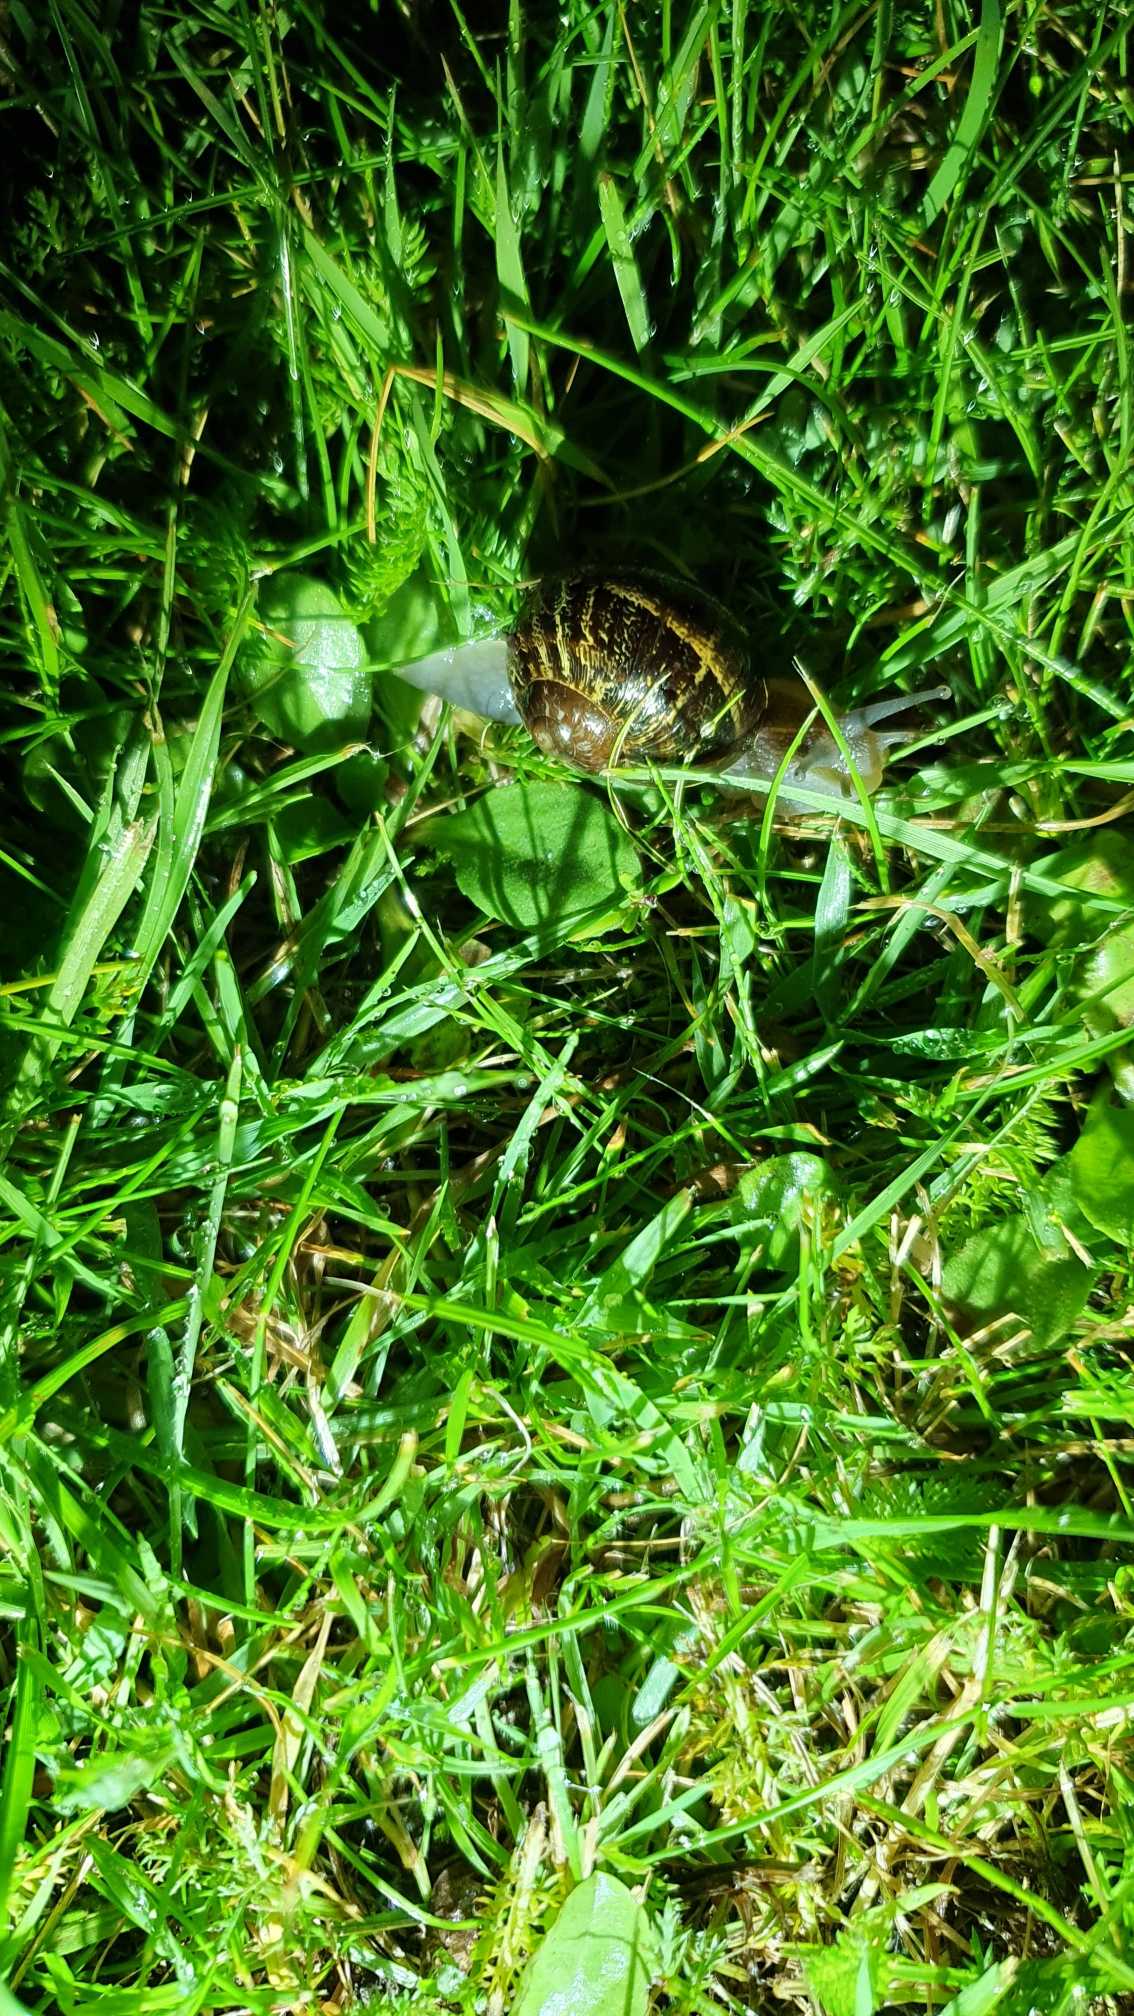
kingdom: Animalia
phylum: Mollusca
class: Gastropoda
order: Stylommatophora
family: Helicidae
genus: Cornu
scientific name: Cornu aspersum
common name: Plettet voldsnegl
